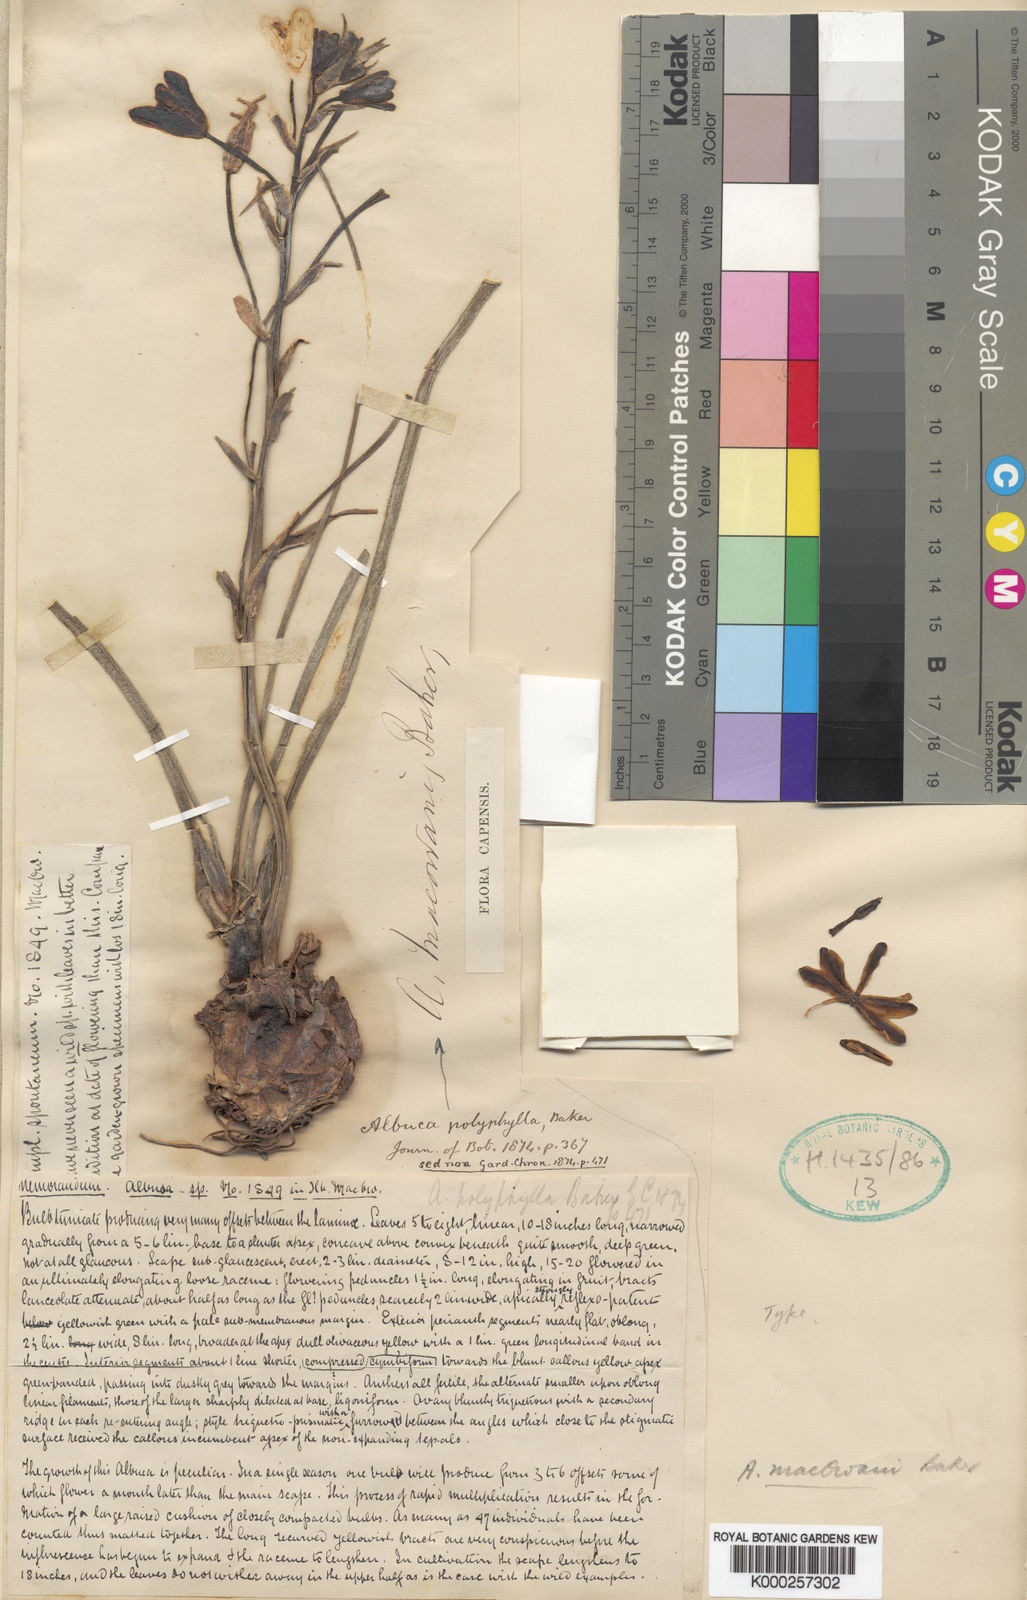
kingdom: Plantae
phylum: Tracheophyta
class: Liliopsida
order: Asparagales
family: Asparagaceae
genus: Albuca
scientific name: Albuca macowanii
